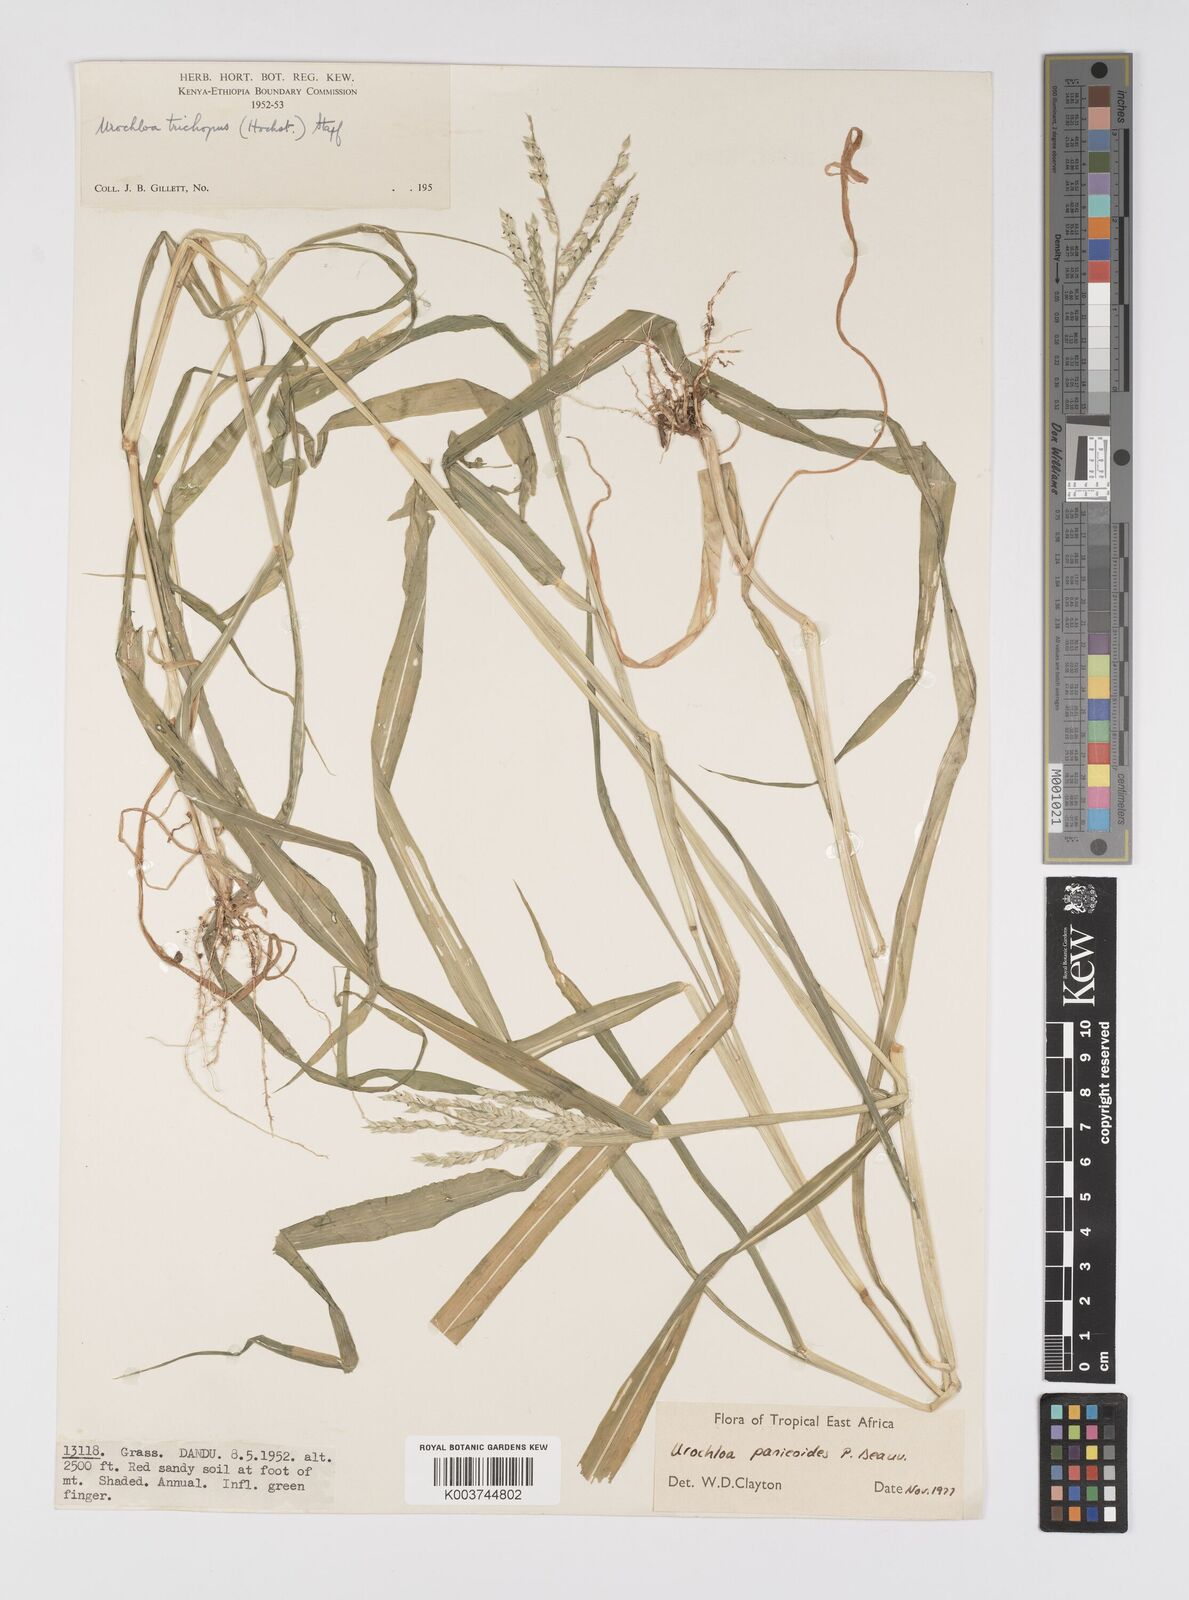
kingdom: Plantae
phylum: Tracheophyta
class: Liliopsida
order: Poales
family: Poaceae
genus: Urochloa
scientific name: Urochloa panicoides
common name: Sharp-flowered signal-grass
